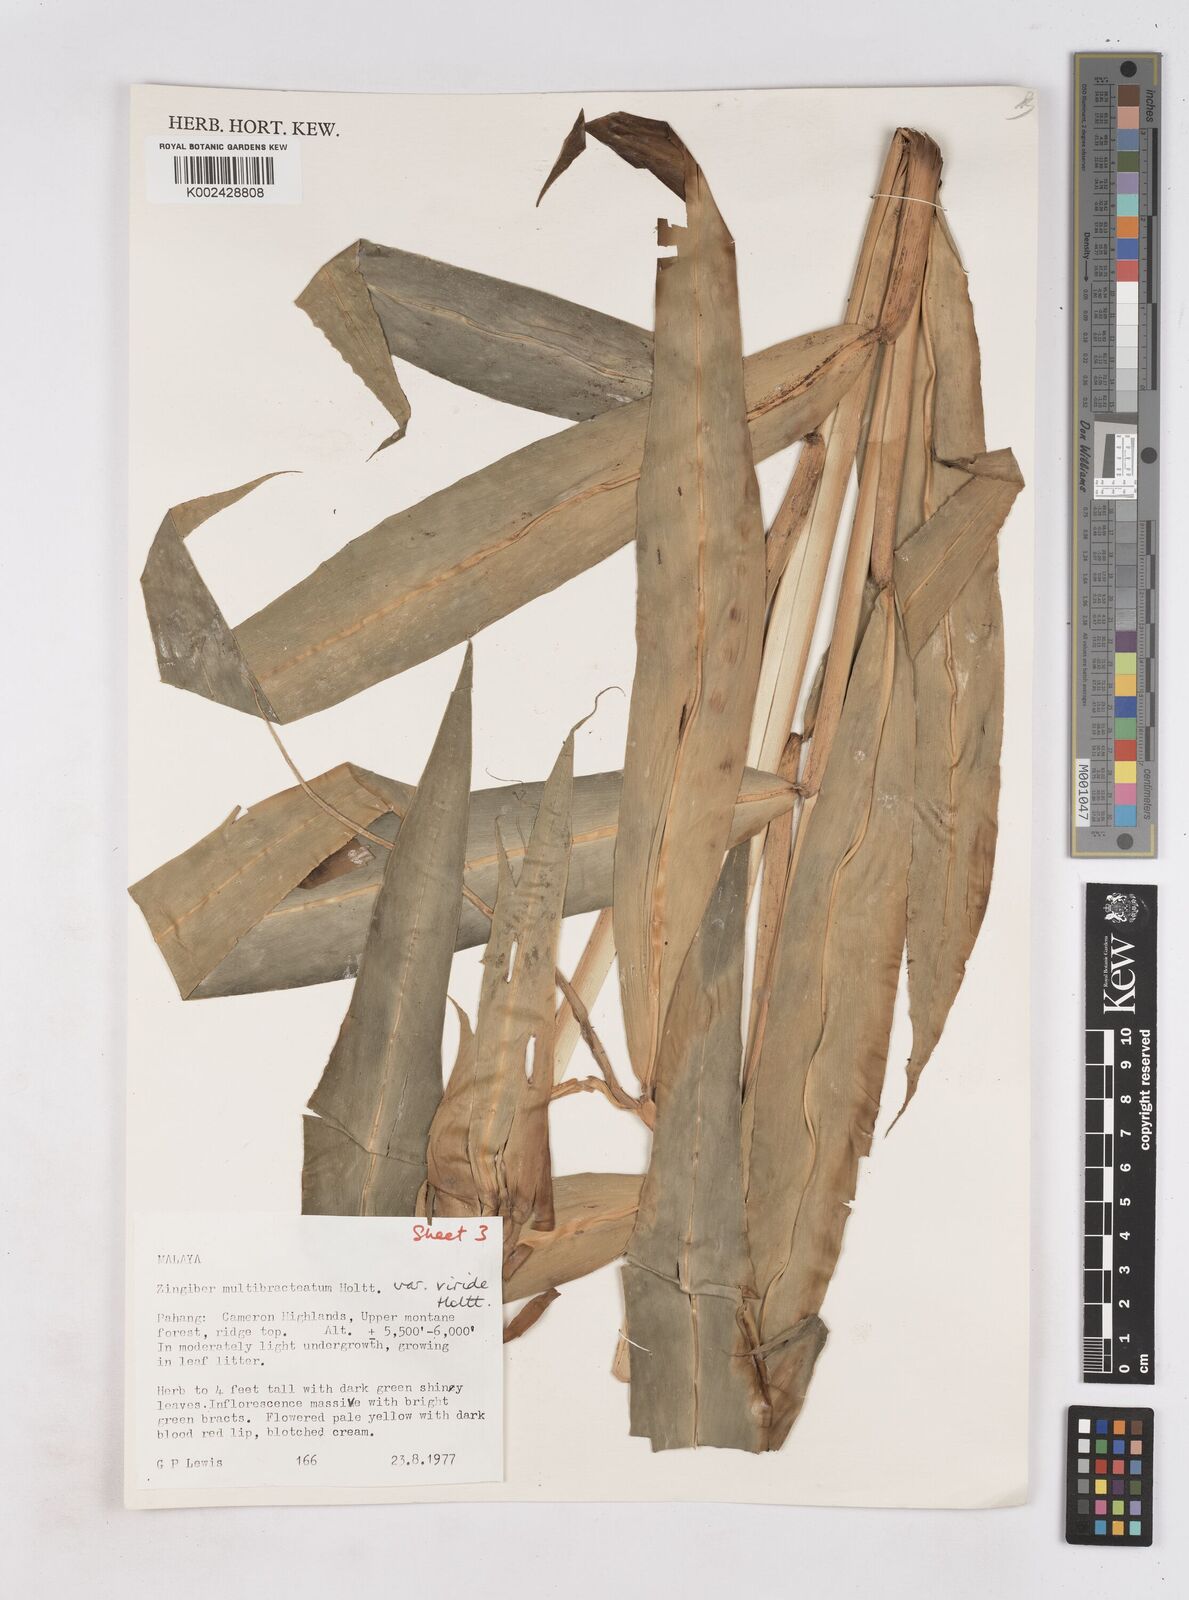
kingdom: Plantae
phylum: Tracheophyta
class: Liliopsida
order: Zingiberales
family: Zingiberaceae
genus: Zingiber
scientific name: Zingiber multibracteatum
